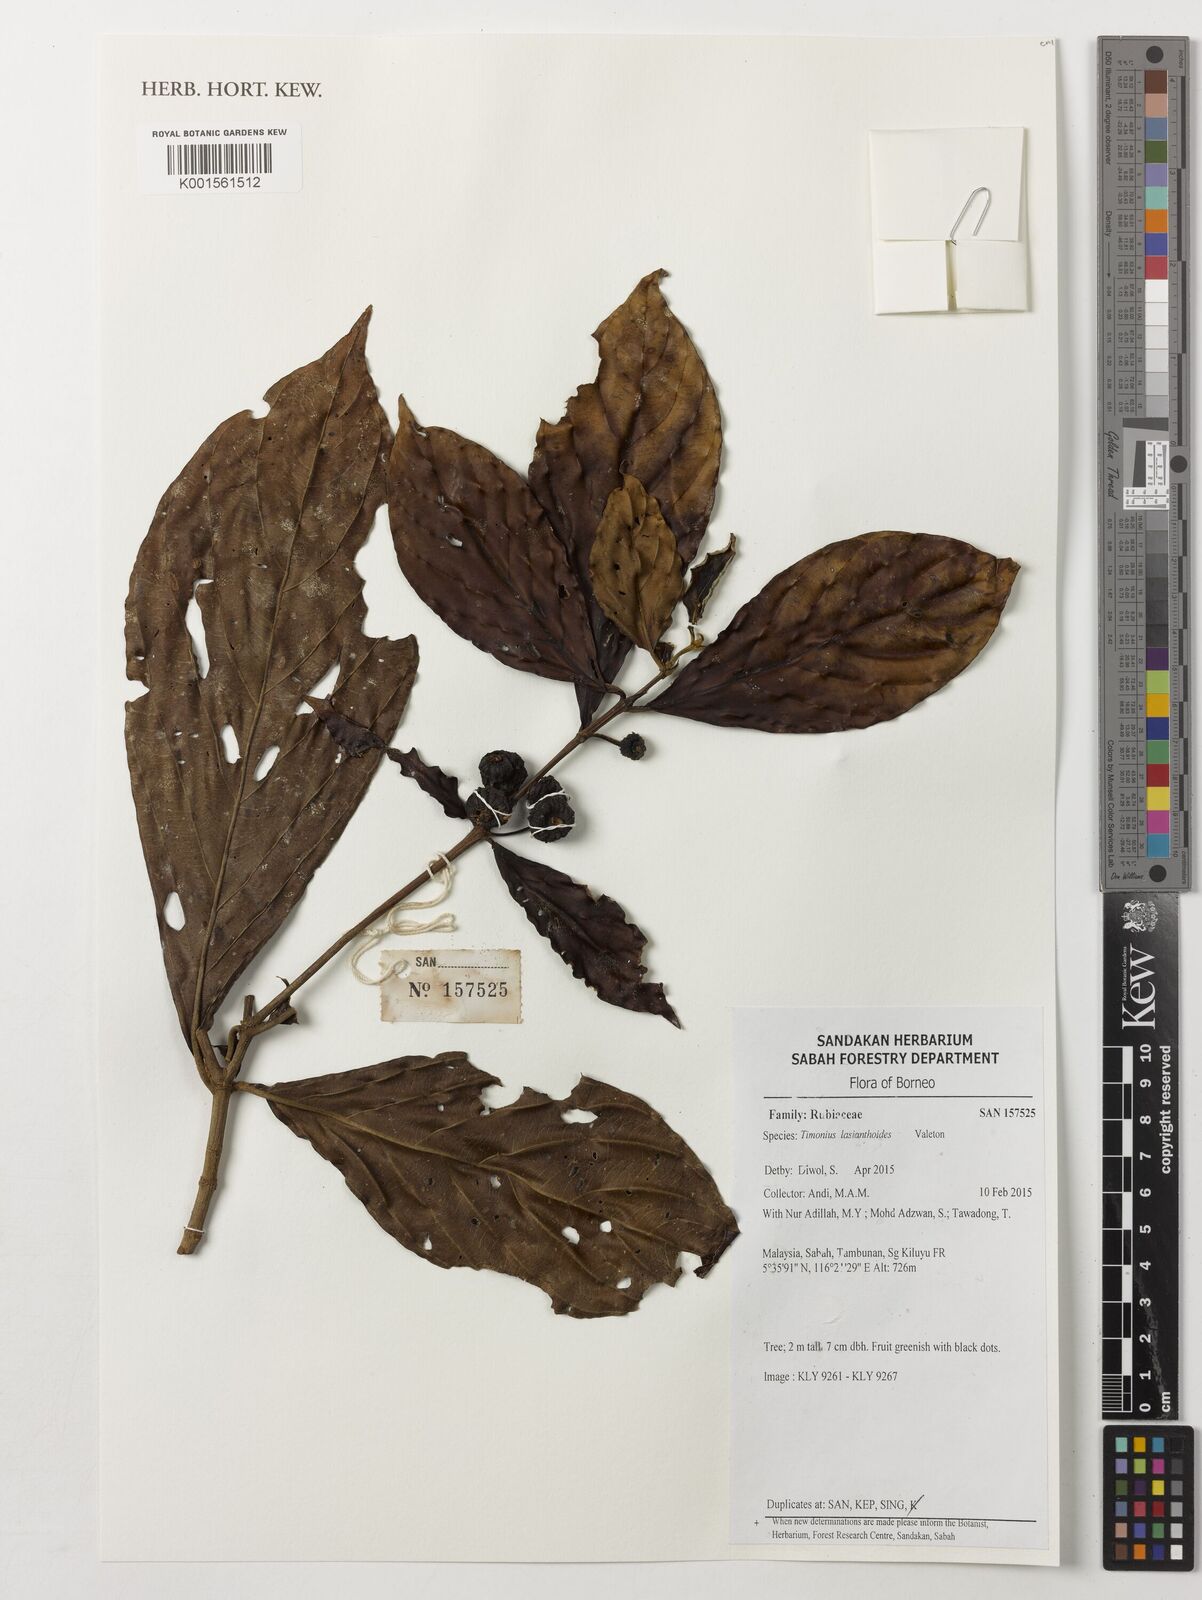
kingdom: Plantae
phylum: Tracheophyta
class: Magnoliopsida
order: Gentianales
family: Rubiaceae
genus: Timonius
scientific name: Timonius lasianthoides
